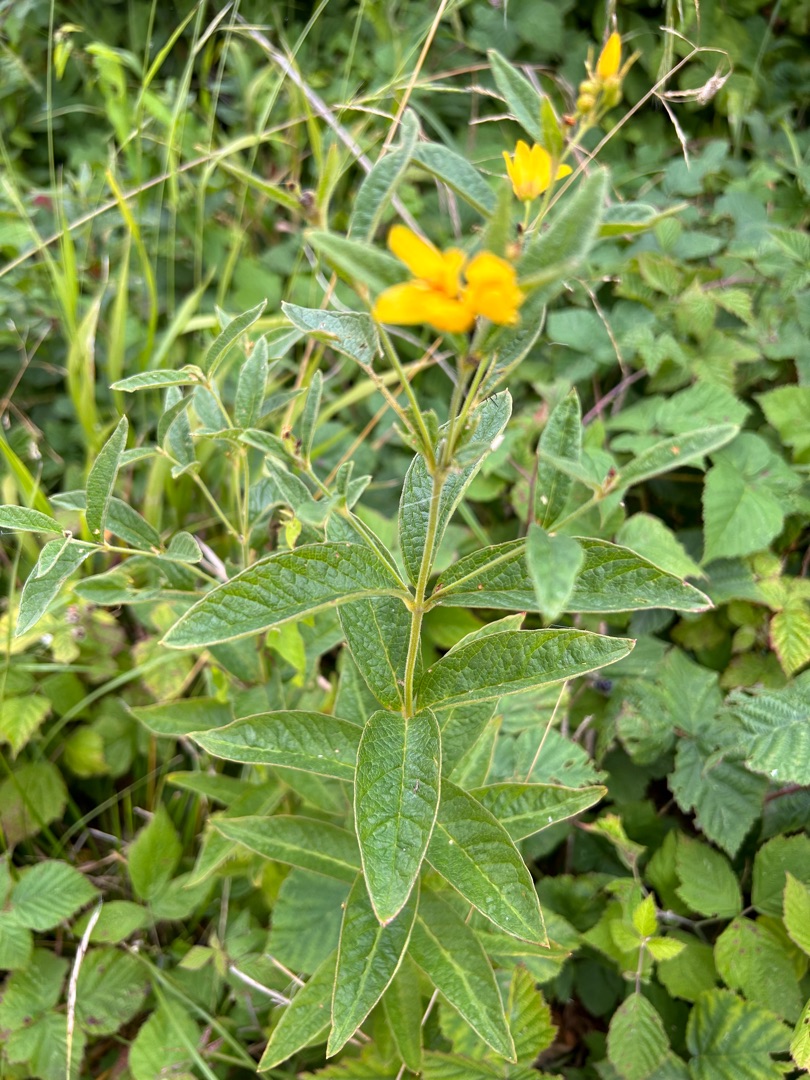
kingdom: Plantae
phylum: Tracheophyta
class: Magnoliopsida
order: Ericales
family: Primulaceae
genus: Lysimachia
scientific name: Lysimachia vulgaris
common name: Almindelig fredløs
